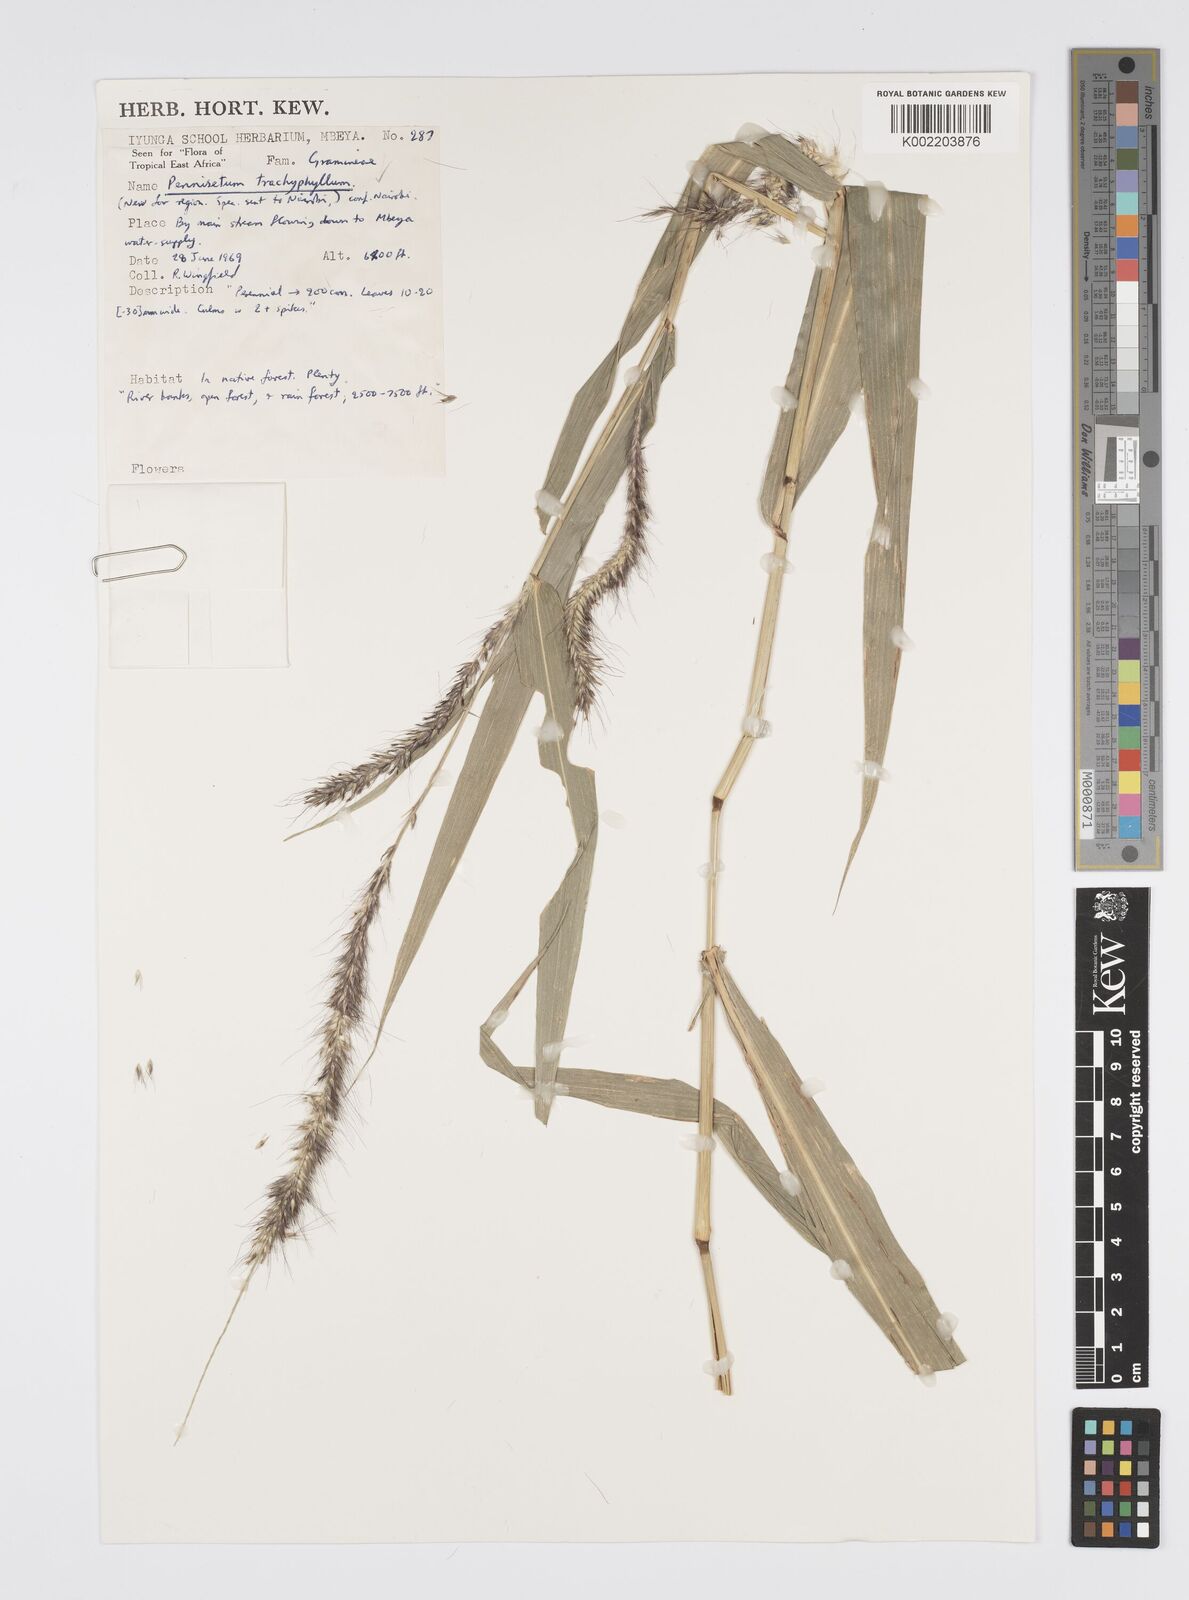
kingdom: Plantae
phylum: Tracheophyta
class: Liliopsida
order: Poales
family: Poaceae
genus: Cenchrus
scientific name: Cenchrus trachyphyllus
